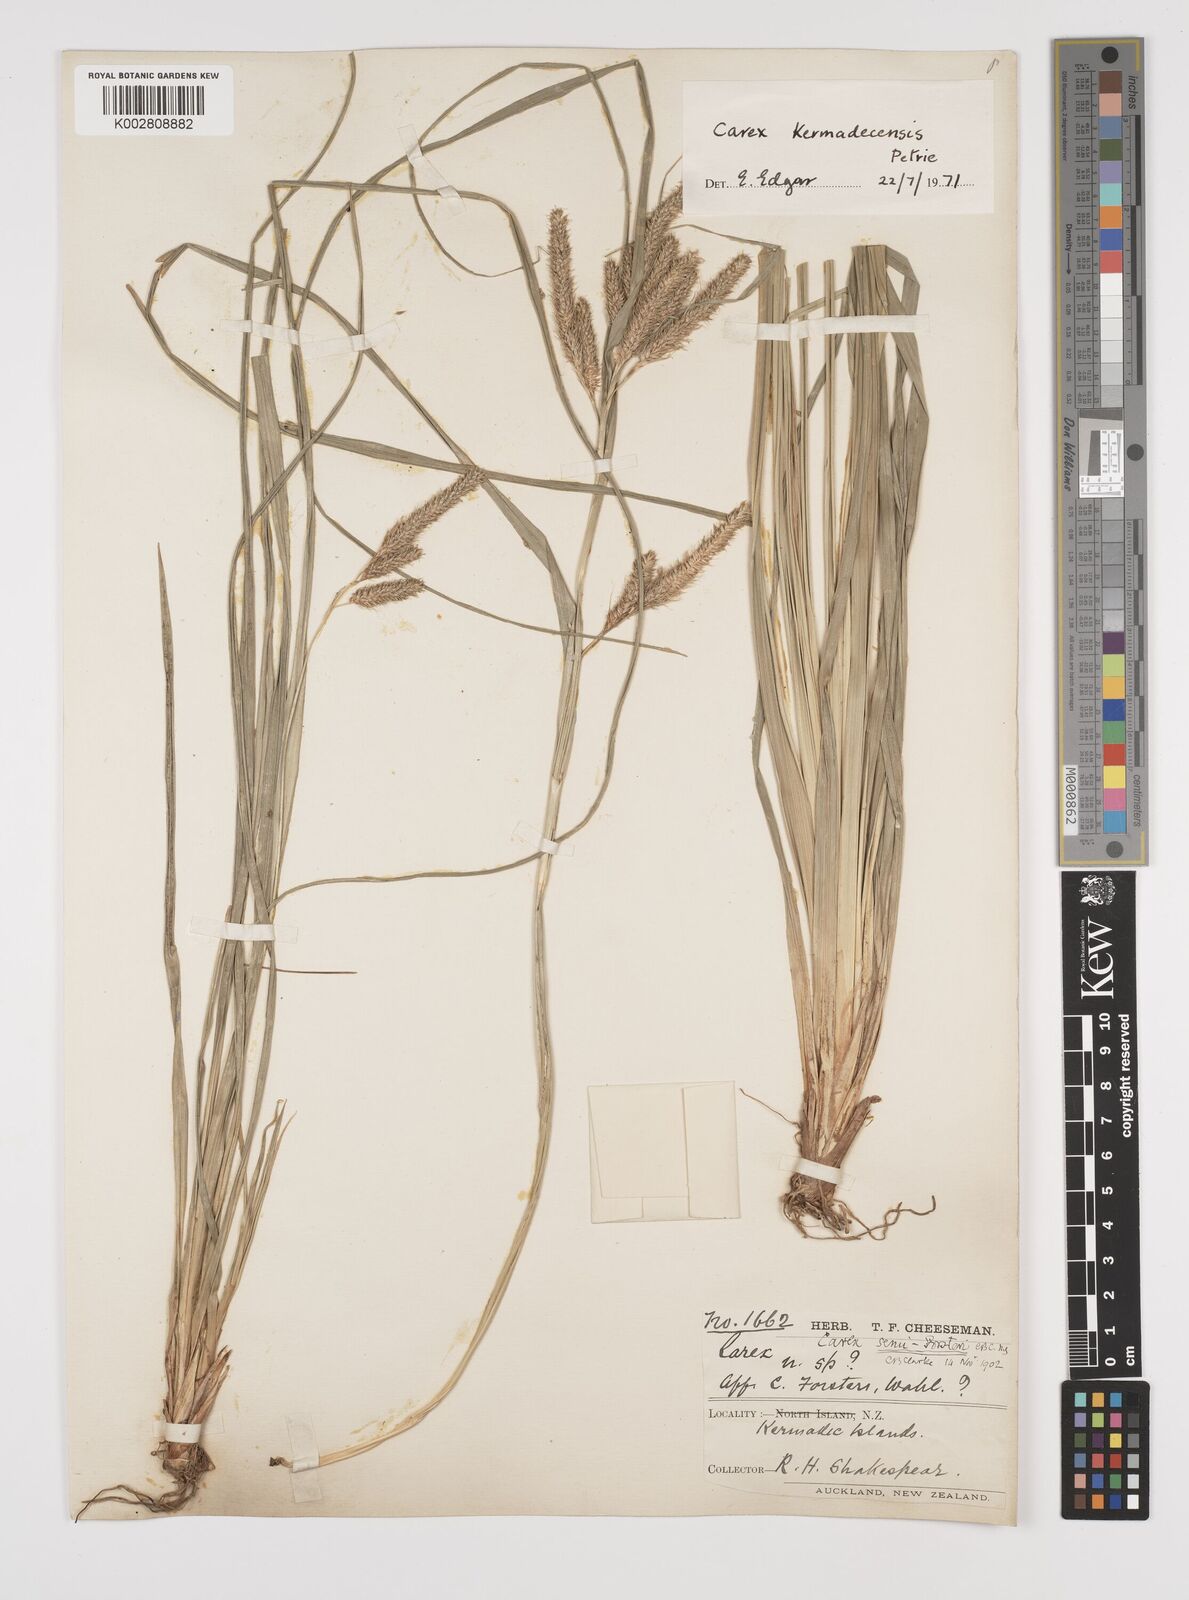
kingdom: Plantae
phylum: Tracheophyta
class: Liliopsida
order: Poales
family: Cyperaceae
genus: Carex
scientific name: Carex forsteri
